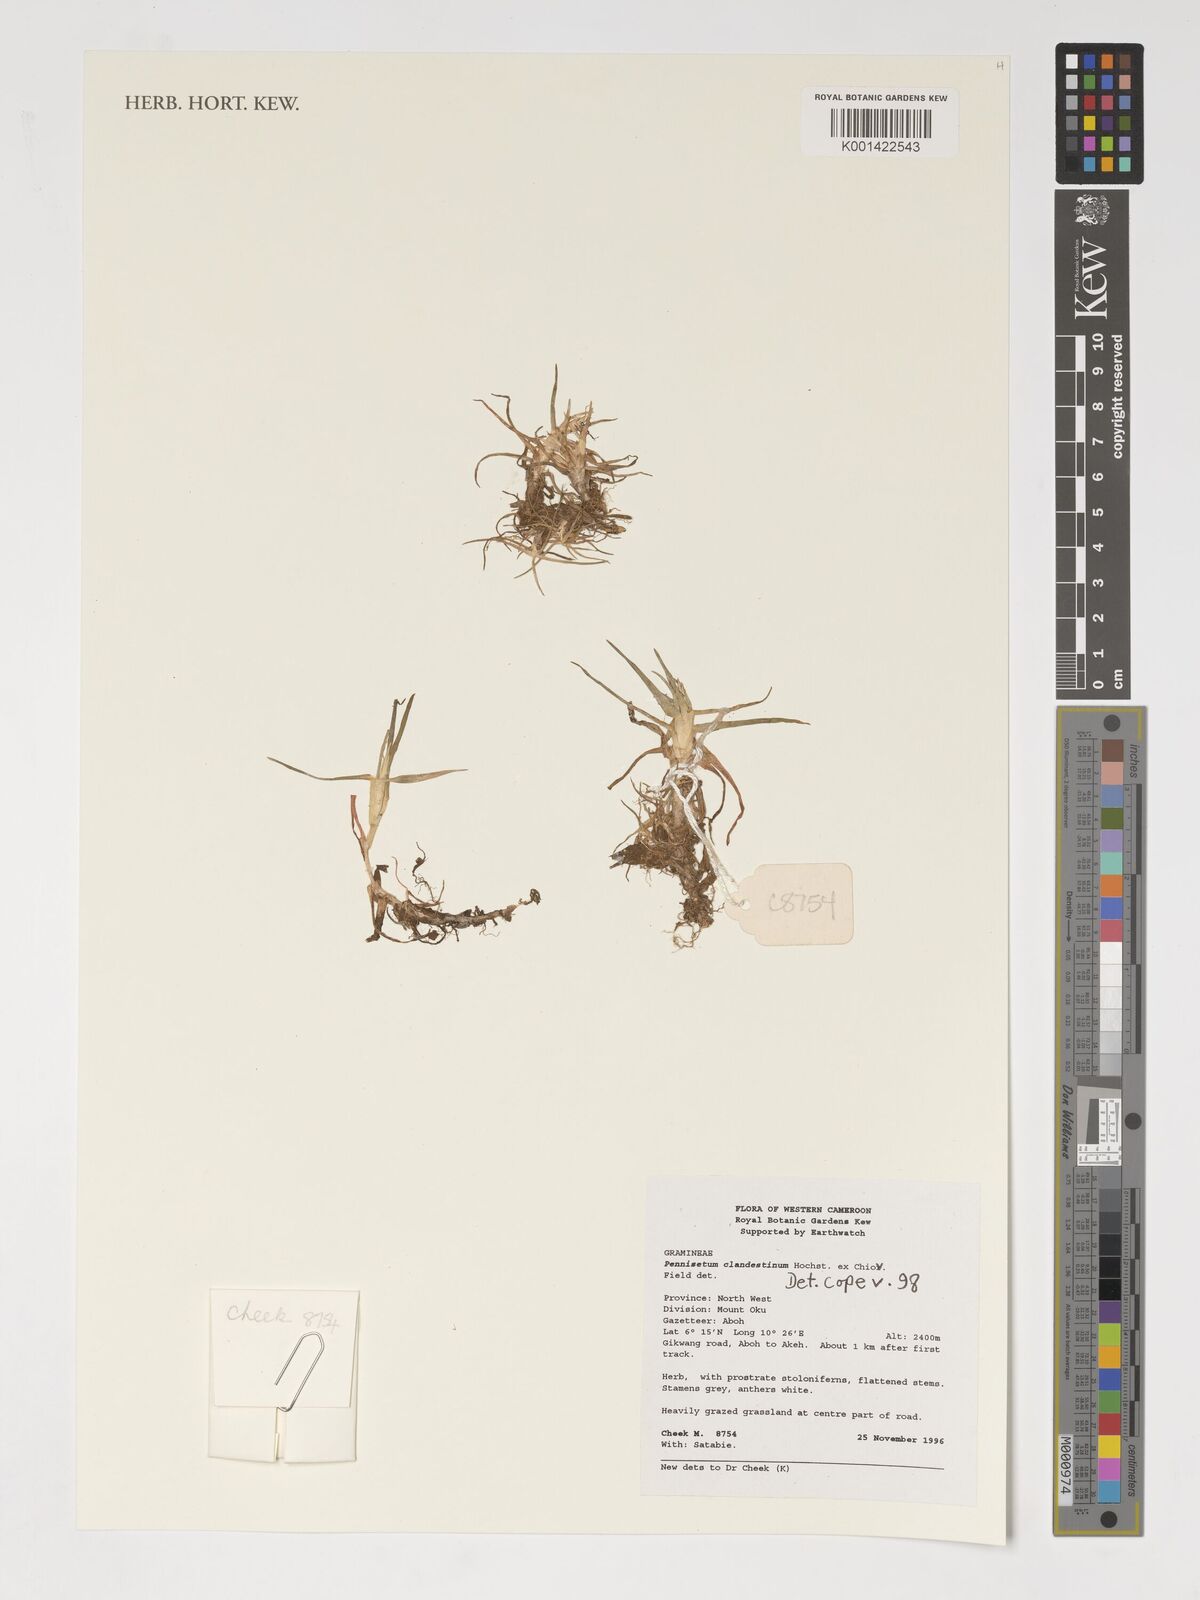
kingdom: Plantae
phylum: Tracheophyta
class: Liliopsida
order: Poales
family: Poaceae
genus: Cenchrus
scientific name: Cenchrus clandestinus
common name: Kikuyugrass
